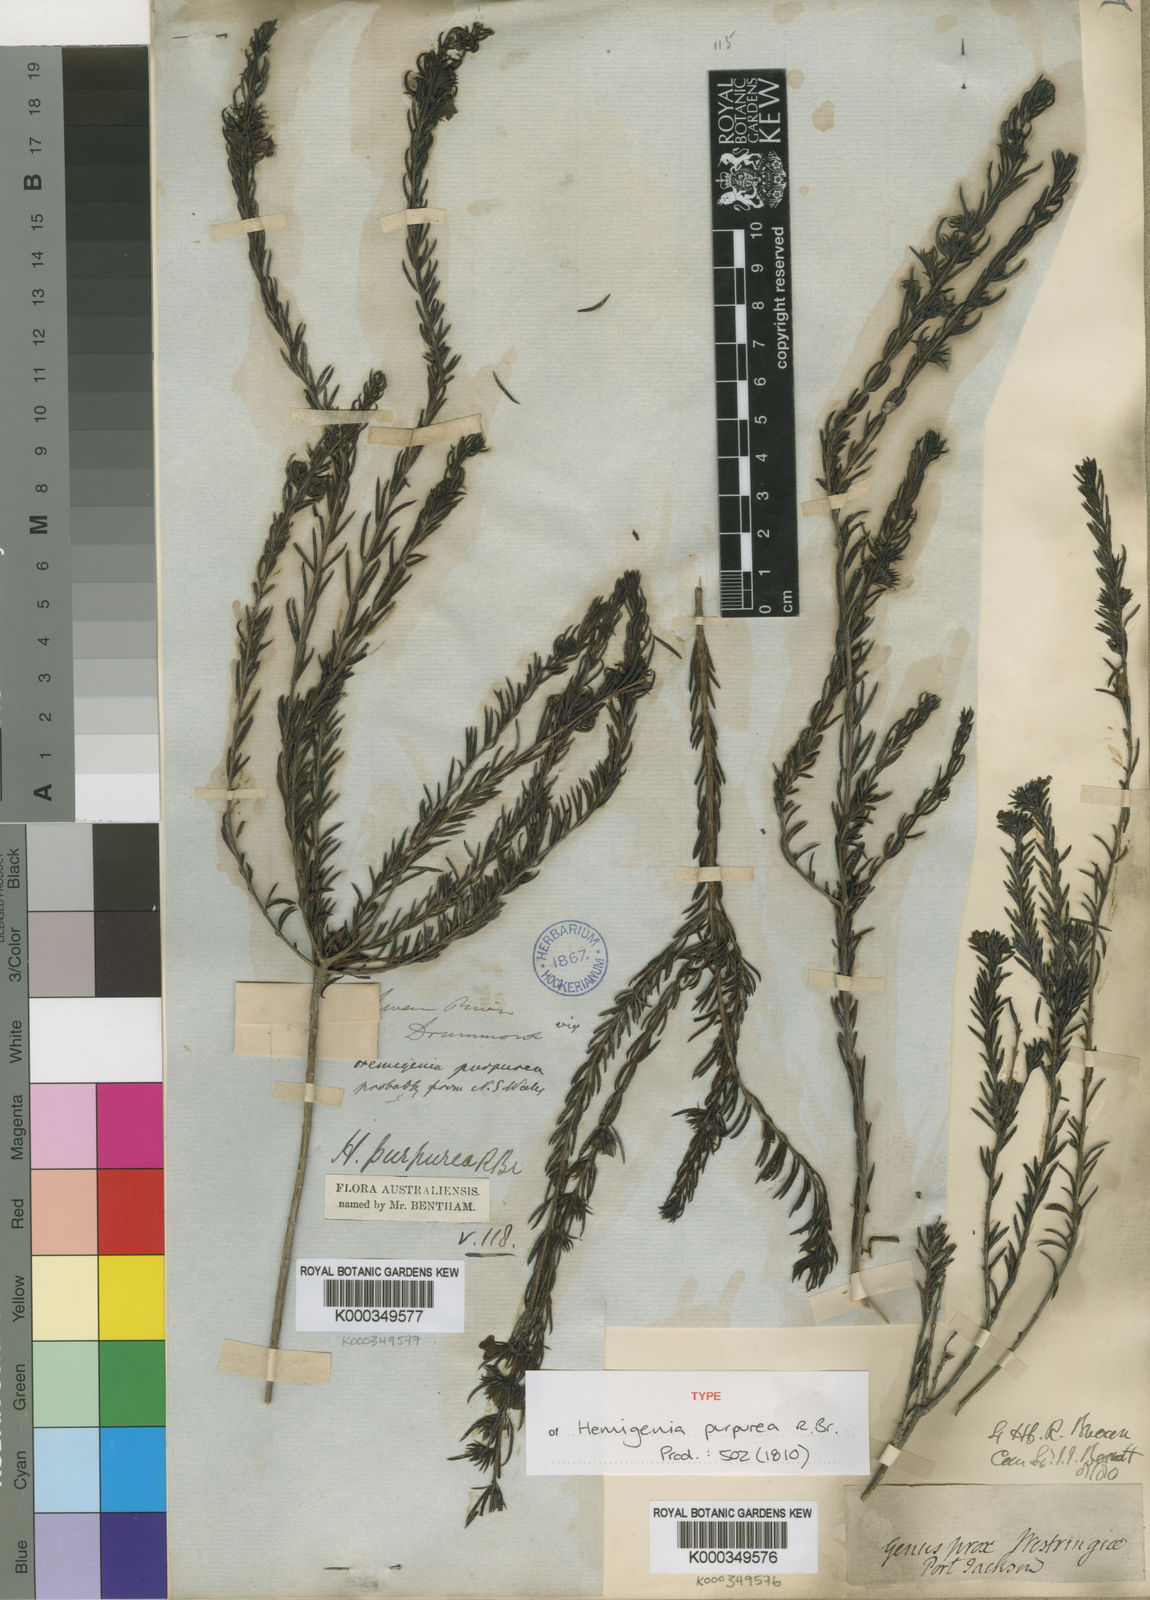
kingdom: Plantae
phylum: Tracheophyta
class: Magnoliopsida
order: Lamiales
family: Lamiaceae
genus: Hemigenia
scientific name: Hemigenia purpurea
